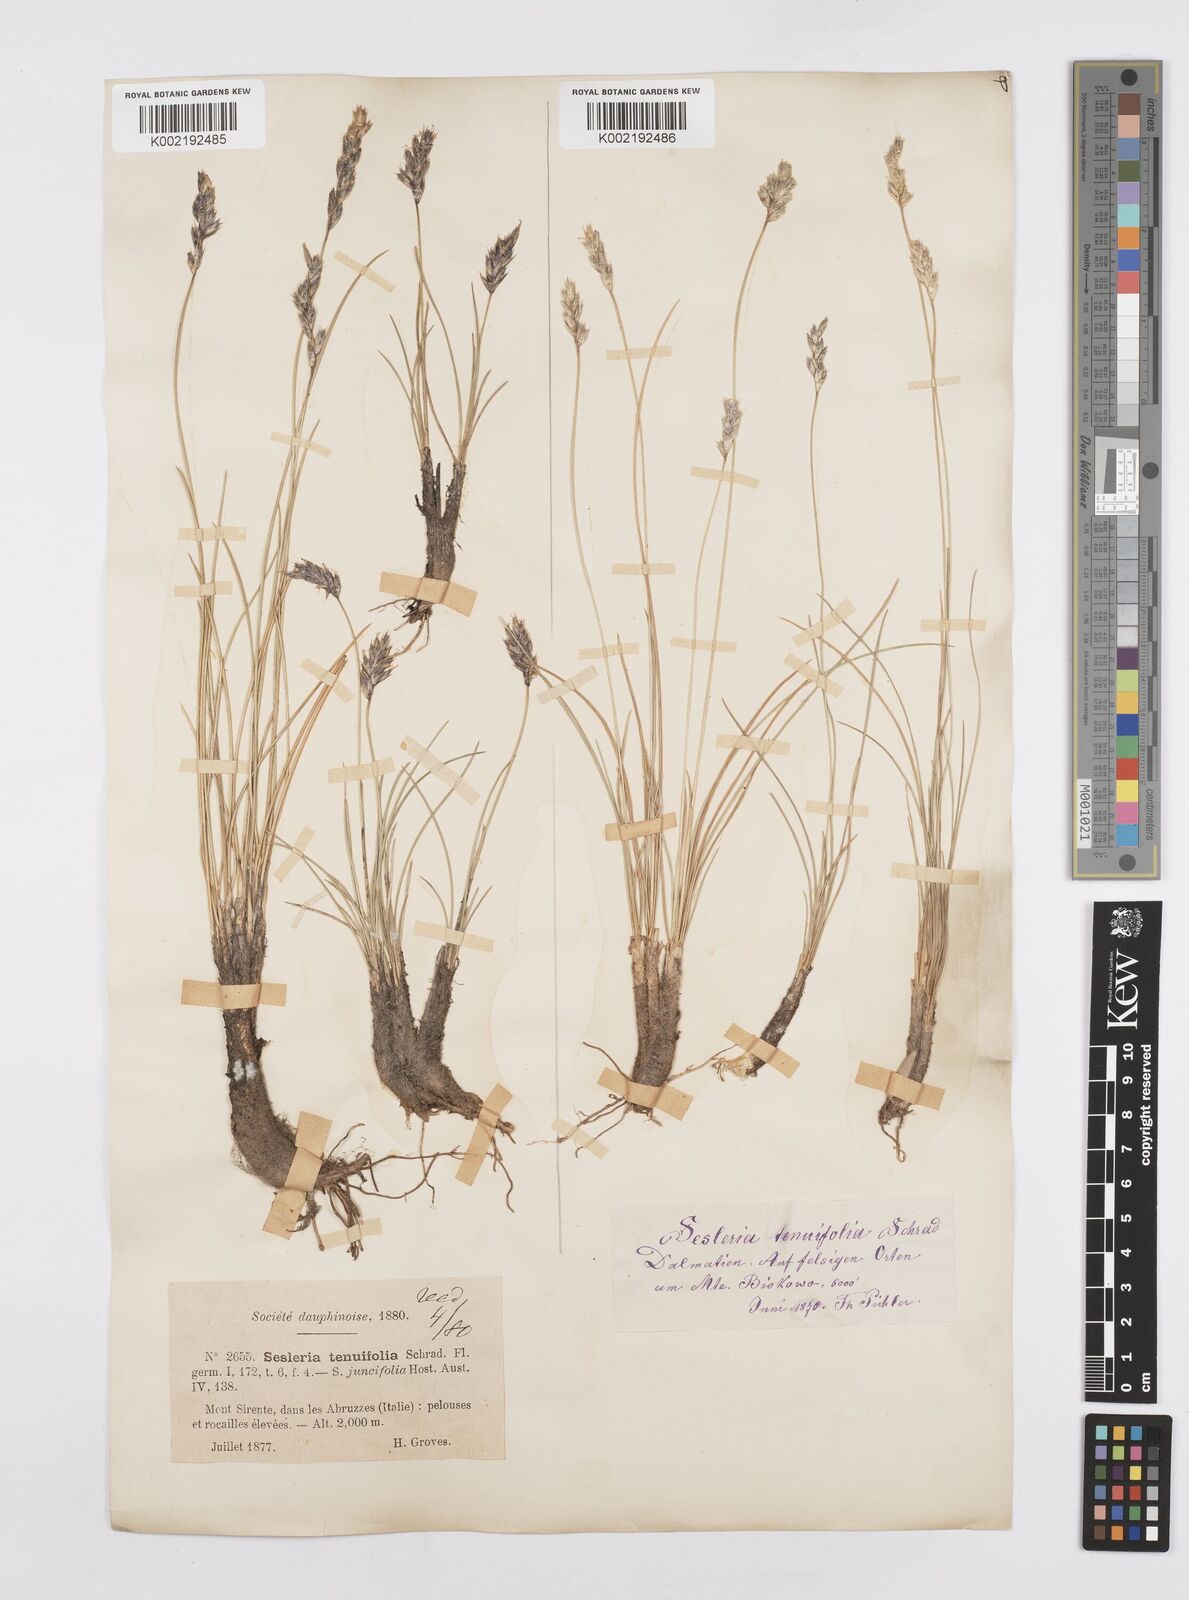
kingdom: Plantae
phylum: Tracheophyta
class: Liliopsida
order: Poales
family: Poaceae
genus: Sesleria
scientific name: Sesleria juncifolia
